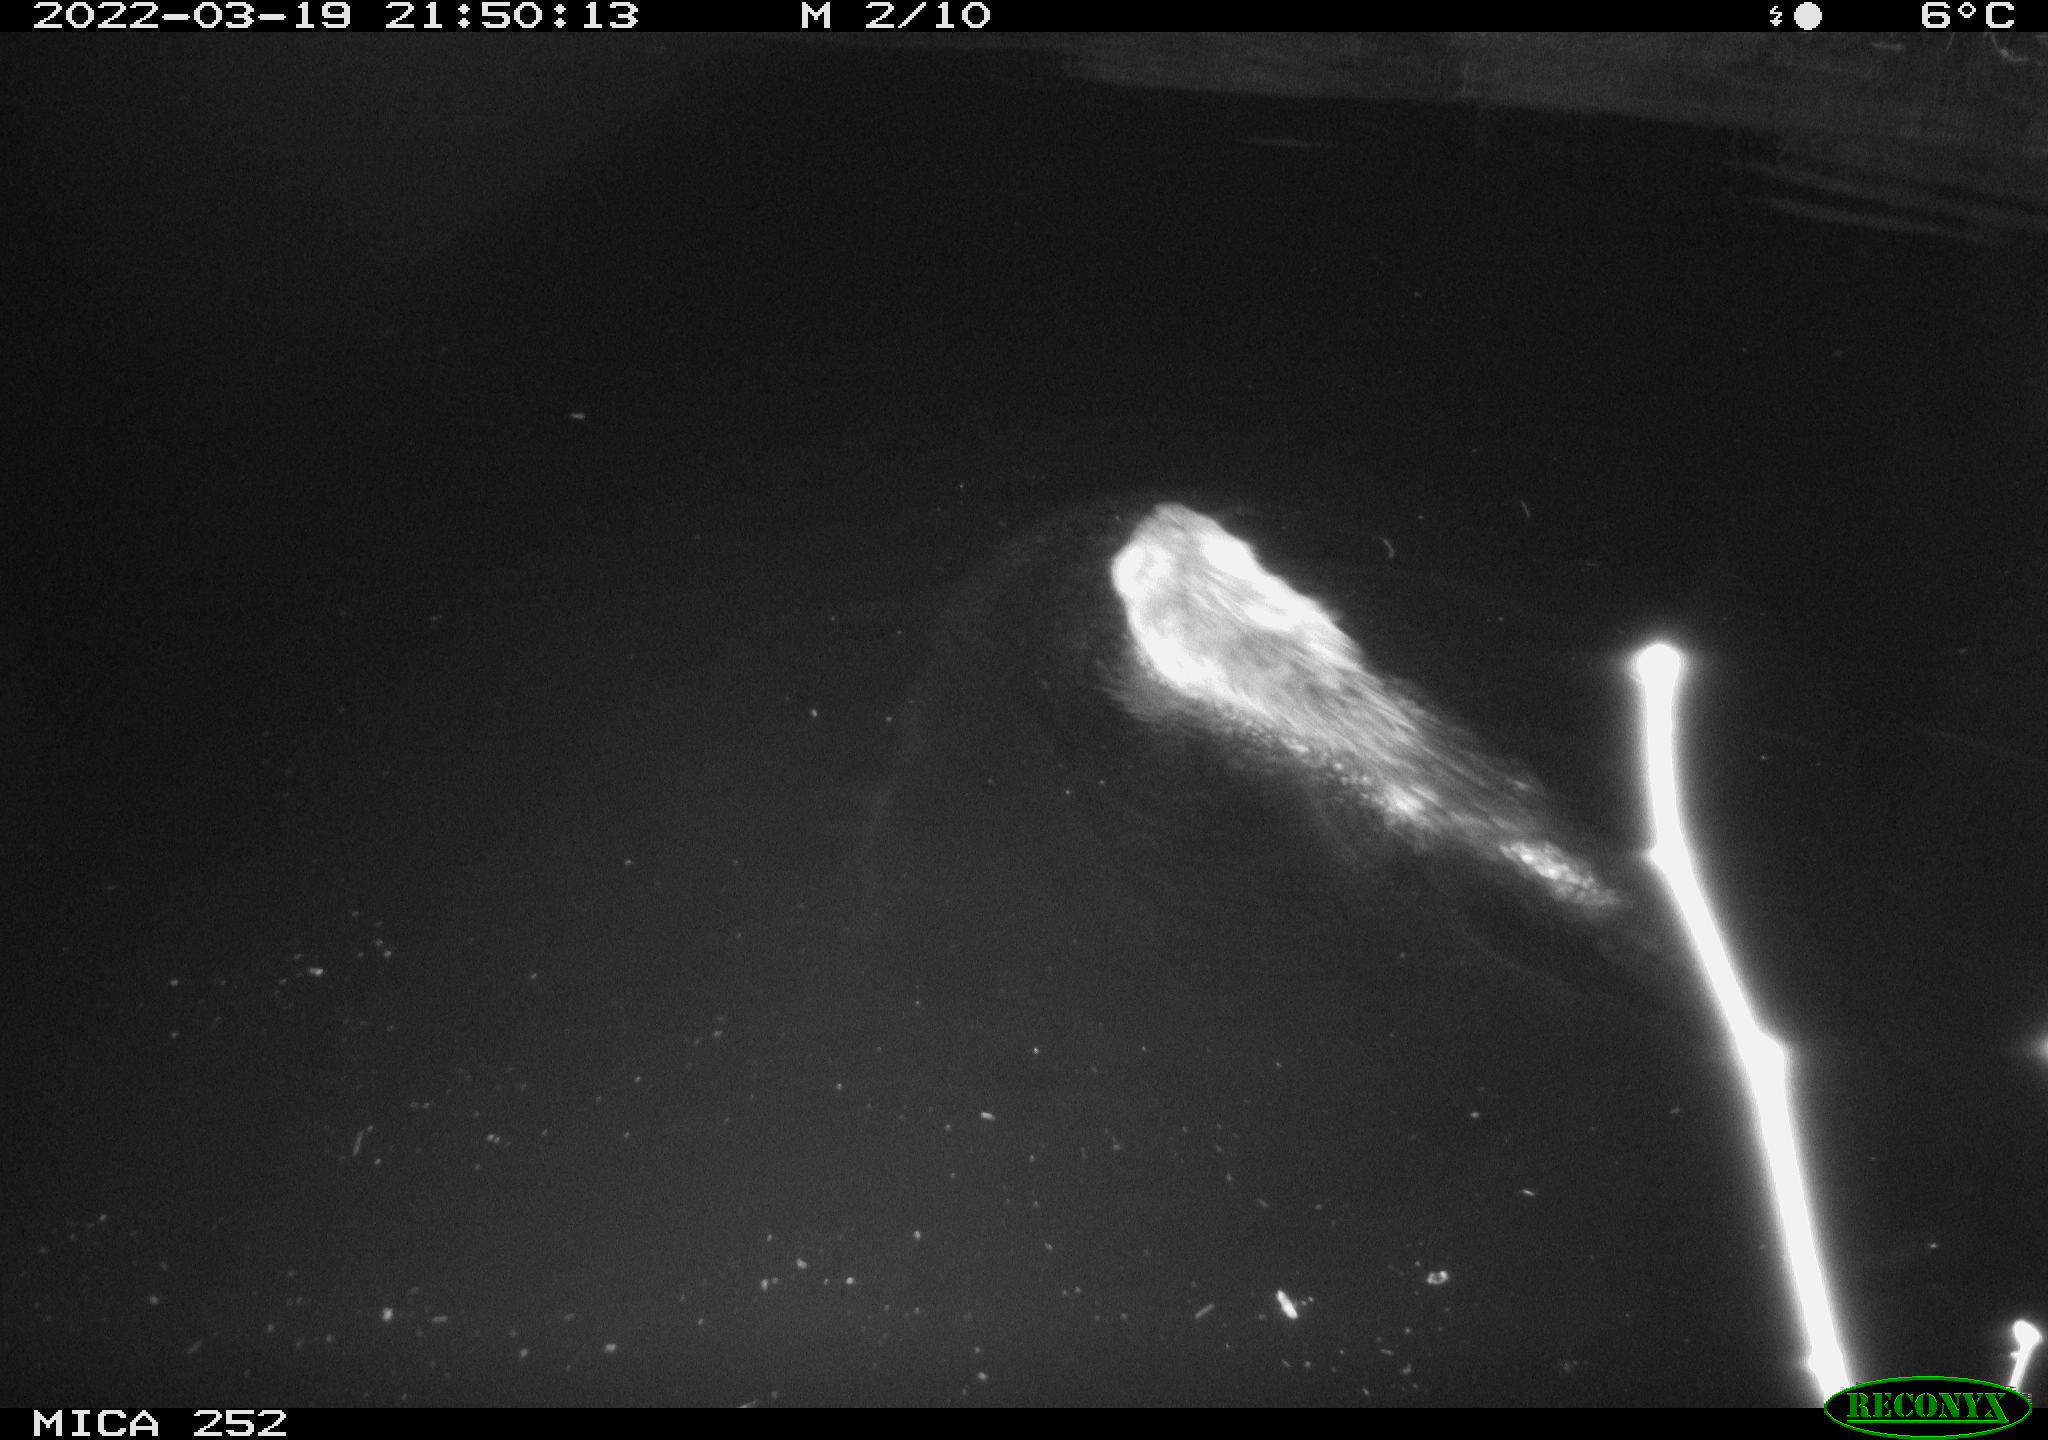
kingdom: Animalia
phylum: Chordata
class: Mammalia
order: Rodentia
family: Castoridae
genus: Castor
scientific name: Castor fiber
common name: Eurasian beaver
